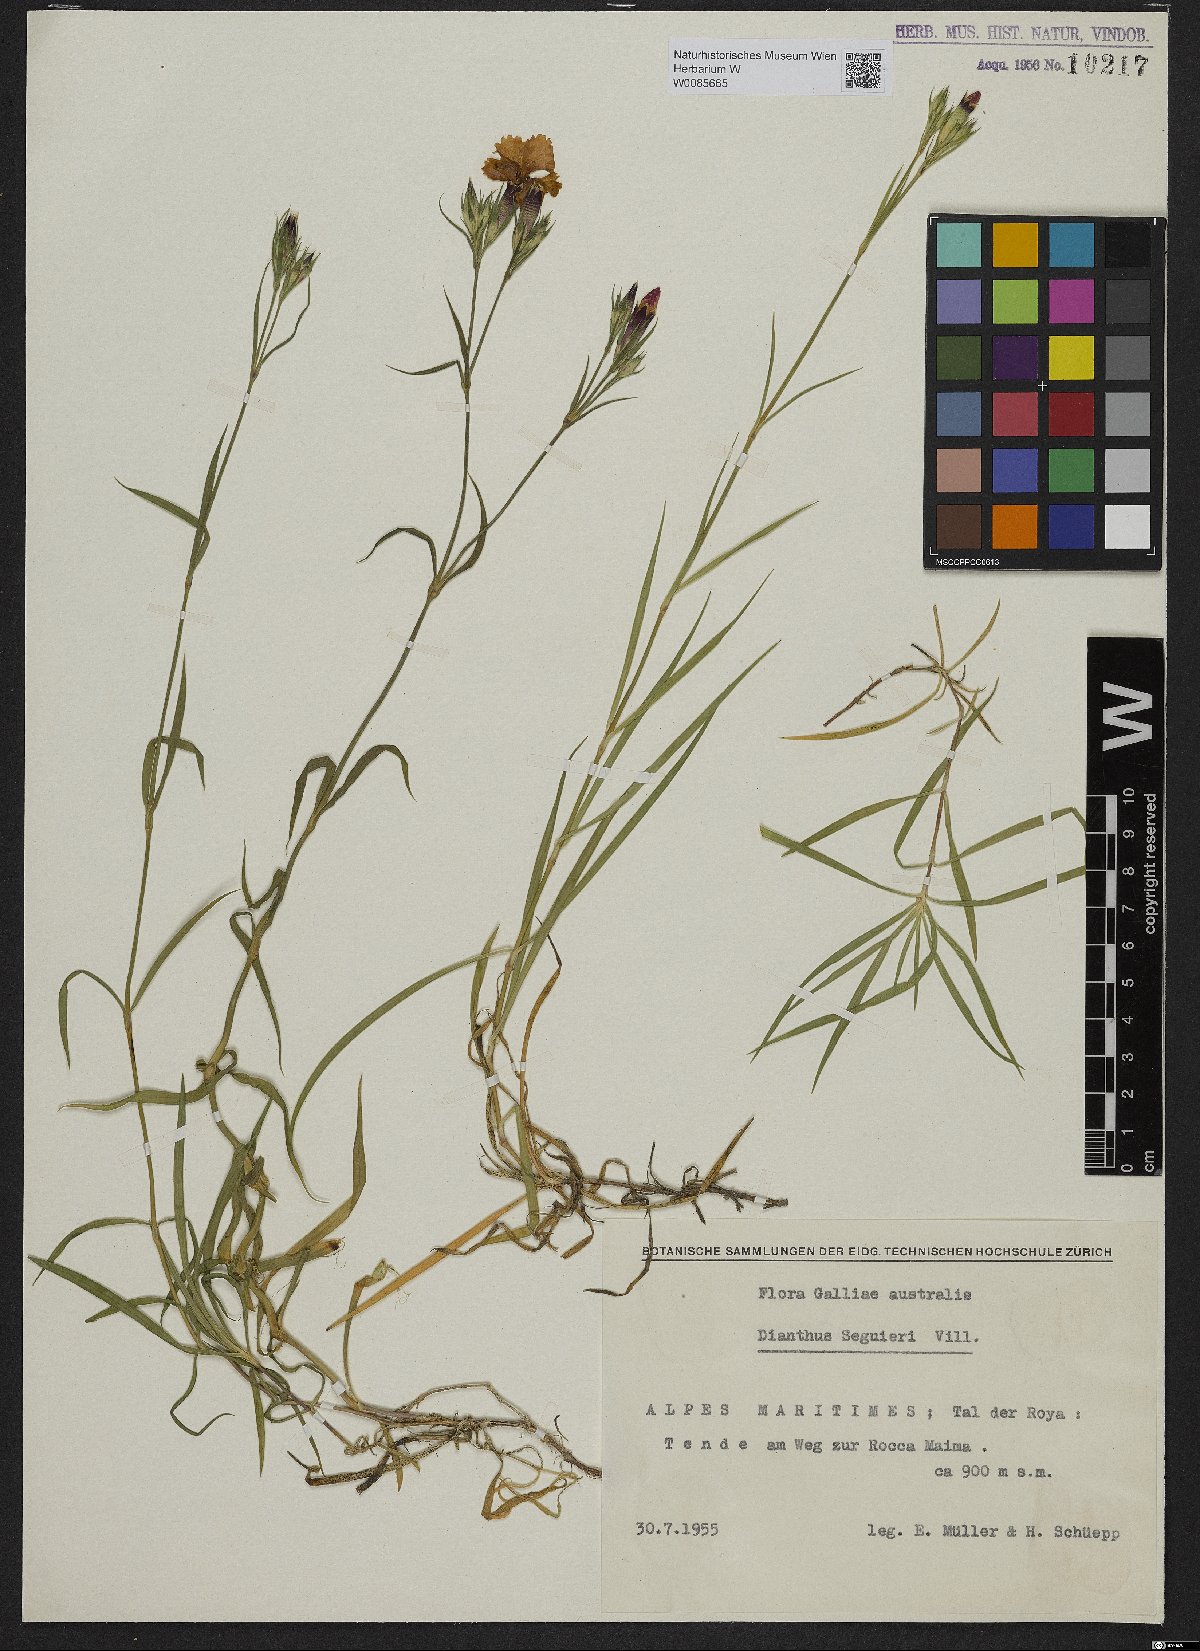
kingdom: Plantae
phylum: Tracheophyta
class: Magnoliopsida
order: Caryophyllales
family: Caryophyllaceae
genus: Dianthus
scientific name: Dianthus seguieri
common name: Ragged pink
